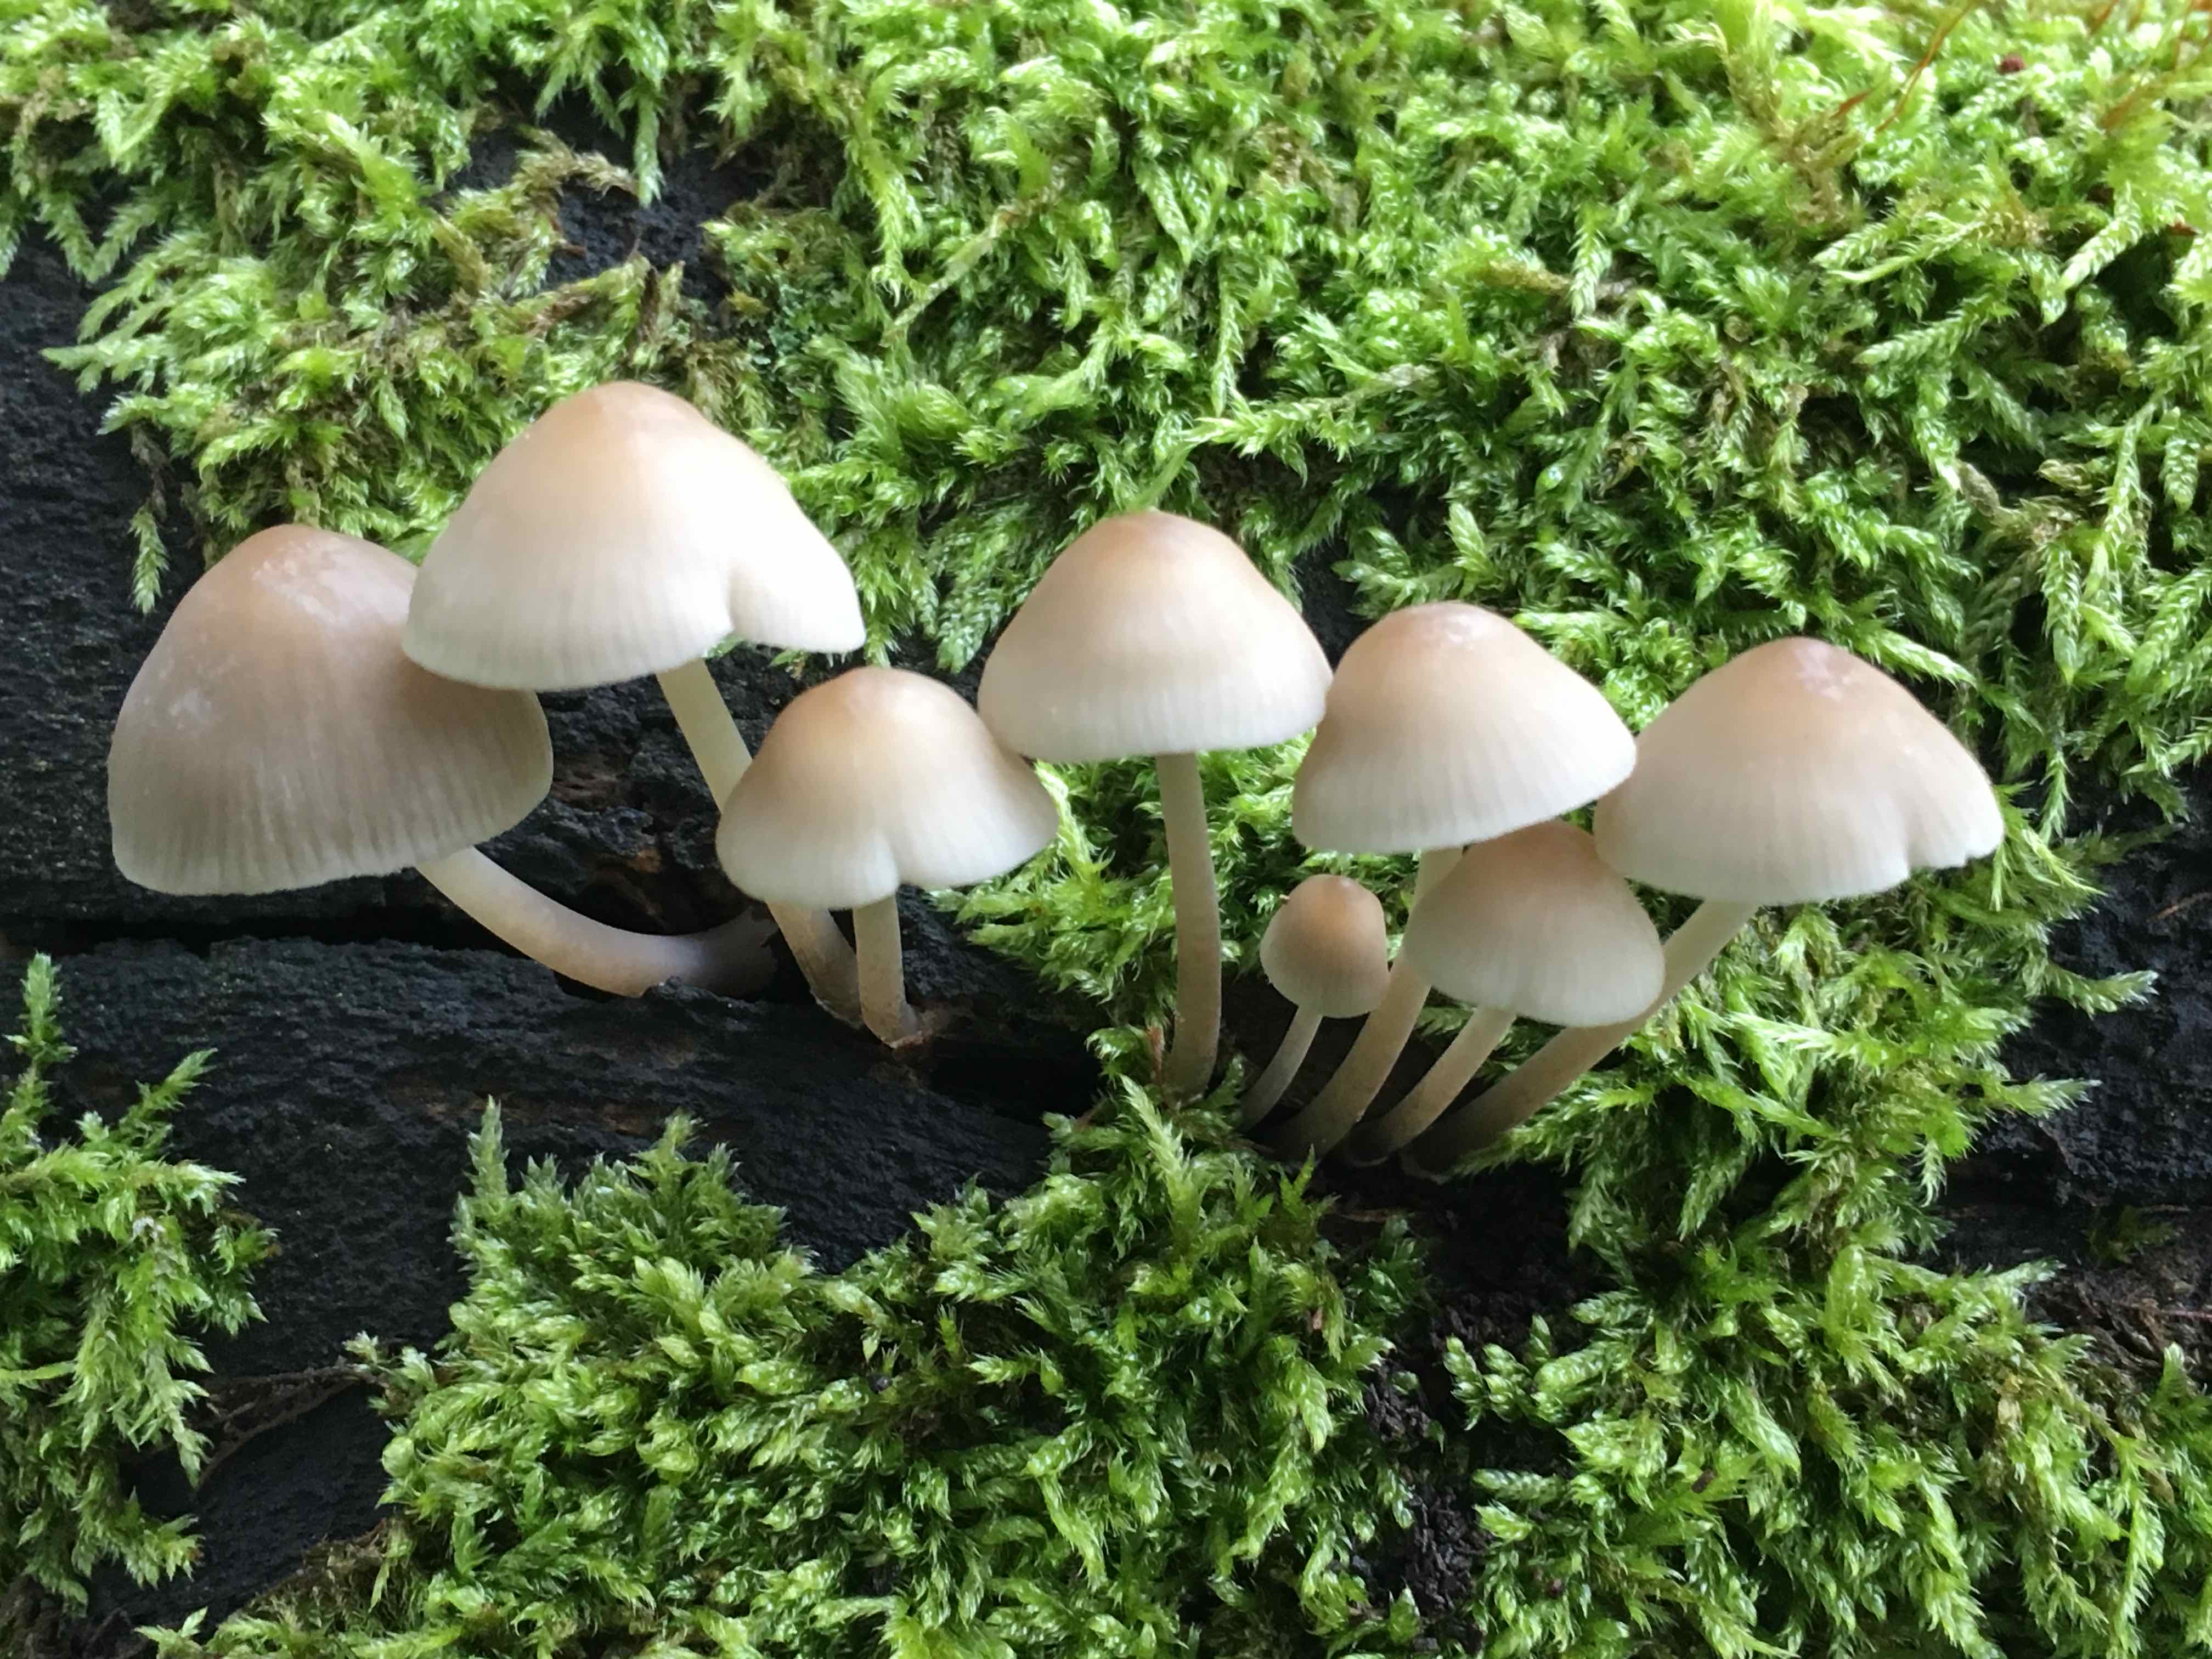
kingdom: Fungi
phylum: Basidiomycota
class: Agaricomycetes
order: Agaricales
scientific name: Agaricales
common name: champignonordenen
